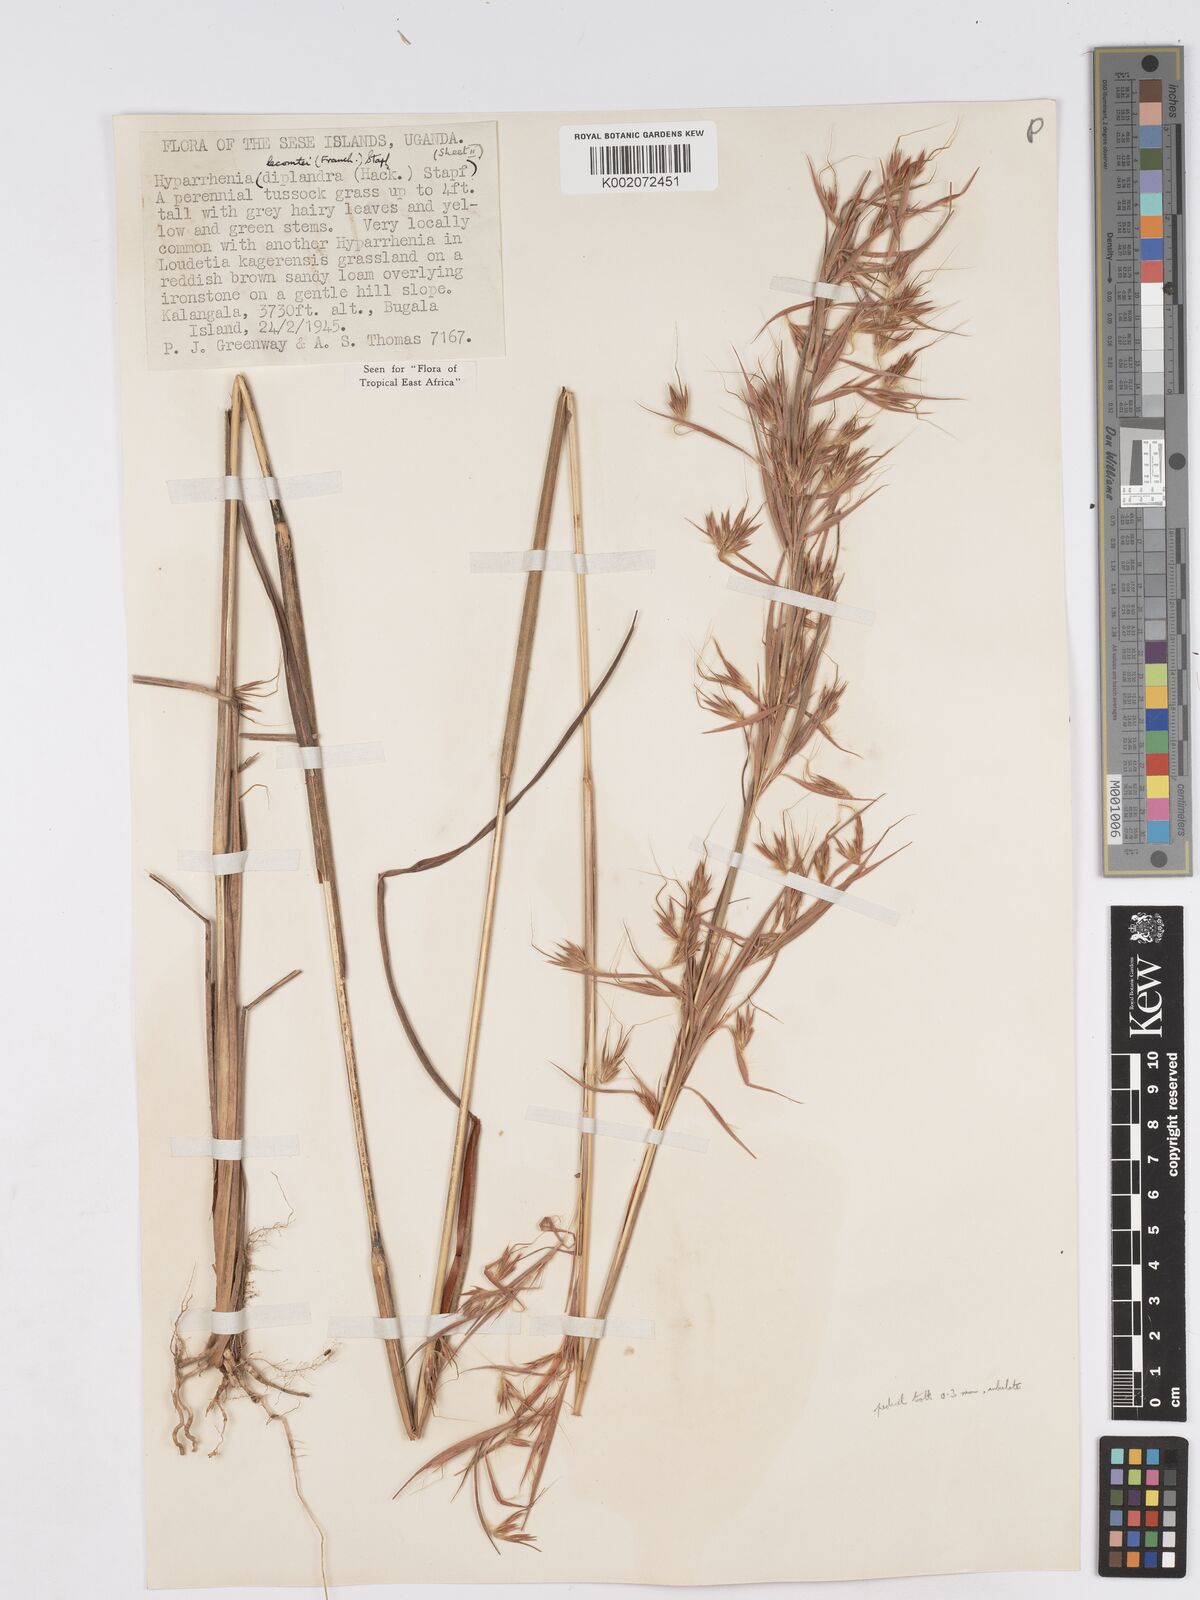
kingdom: Plantae
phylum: Tracheophyta
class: Liliopsida
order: Poales
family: Poaceae
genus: Hyparrhenia
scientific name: Hyparrhenia newtonii
